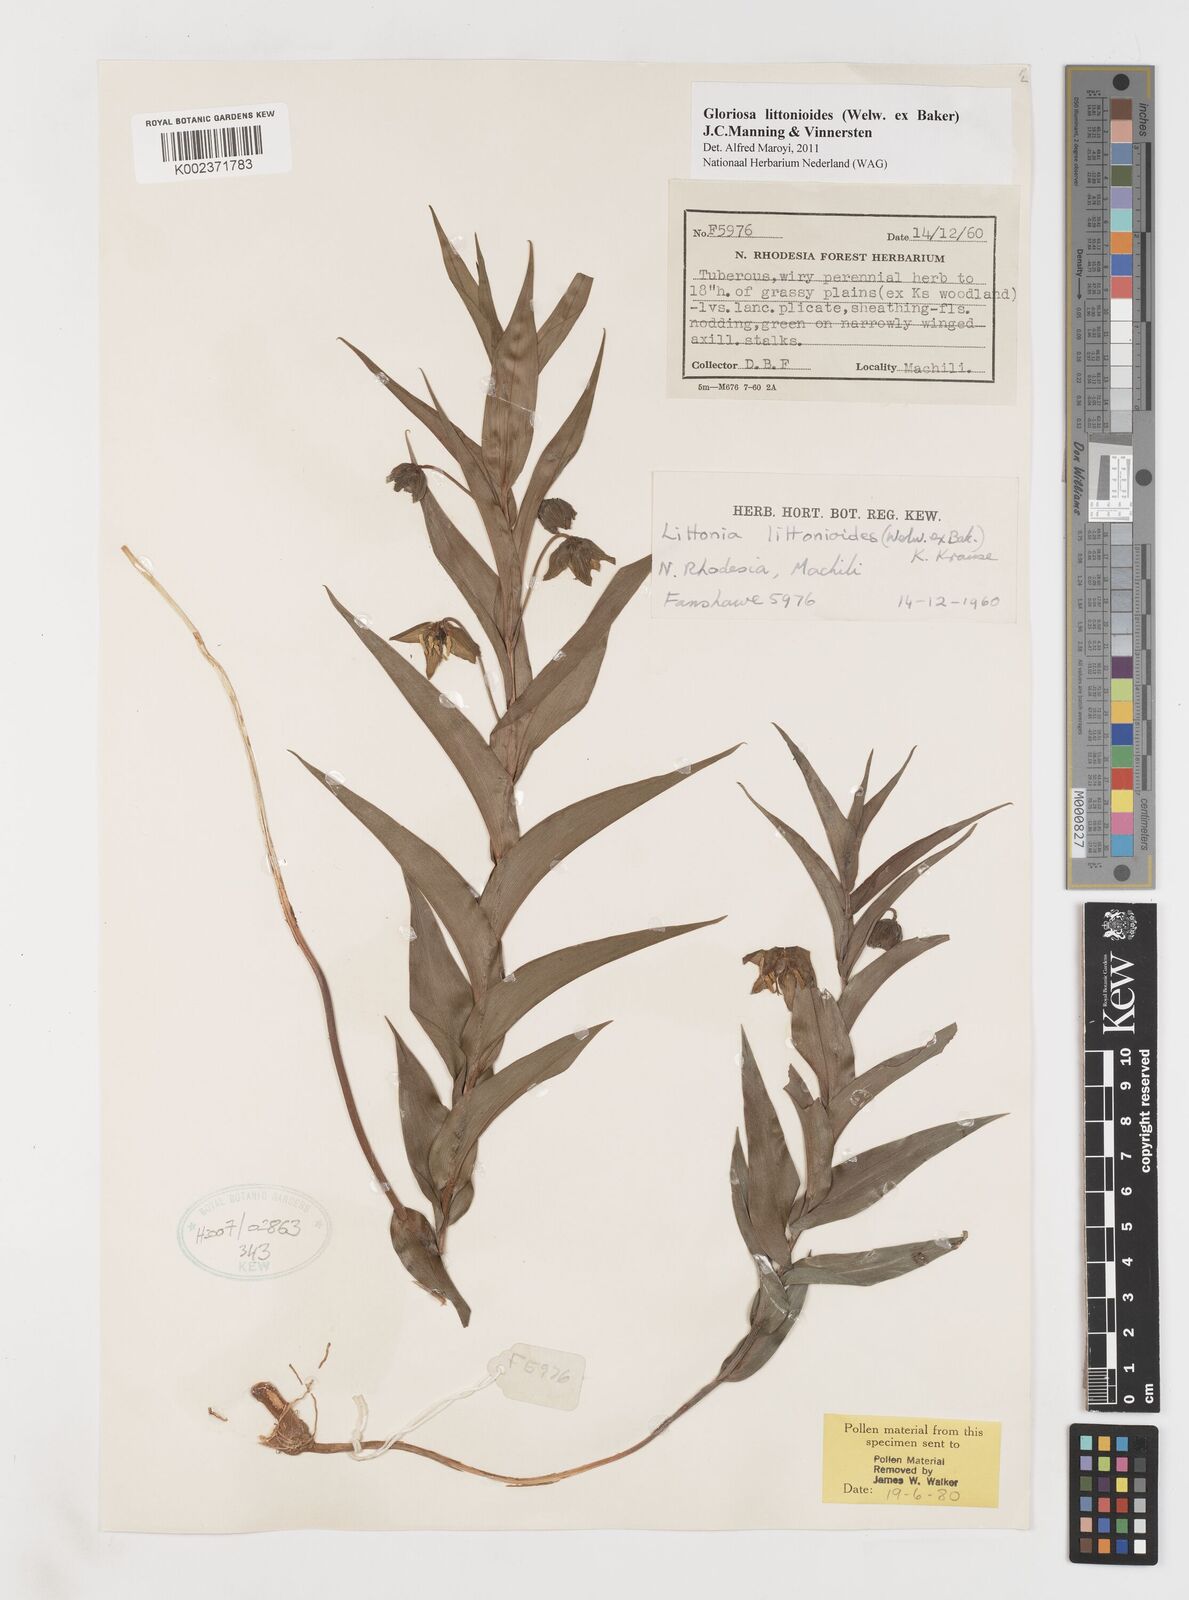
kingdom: Plantae
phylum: Tracheophyta
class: Liliopsida
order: Liliales
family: Colchicaceae
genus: Gloriosa
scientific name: Gloriosa littonioides
